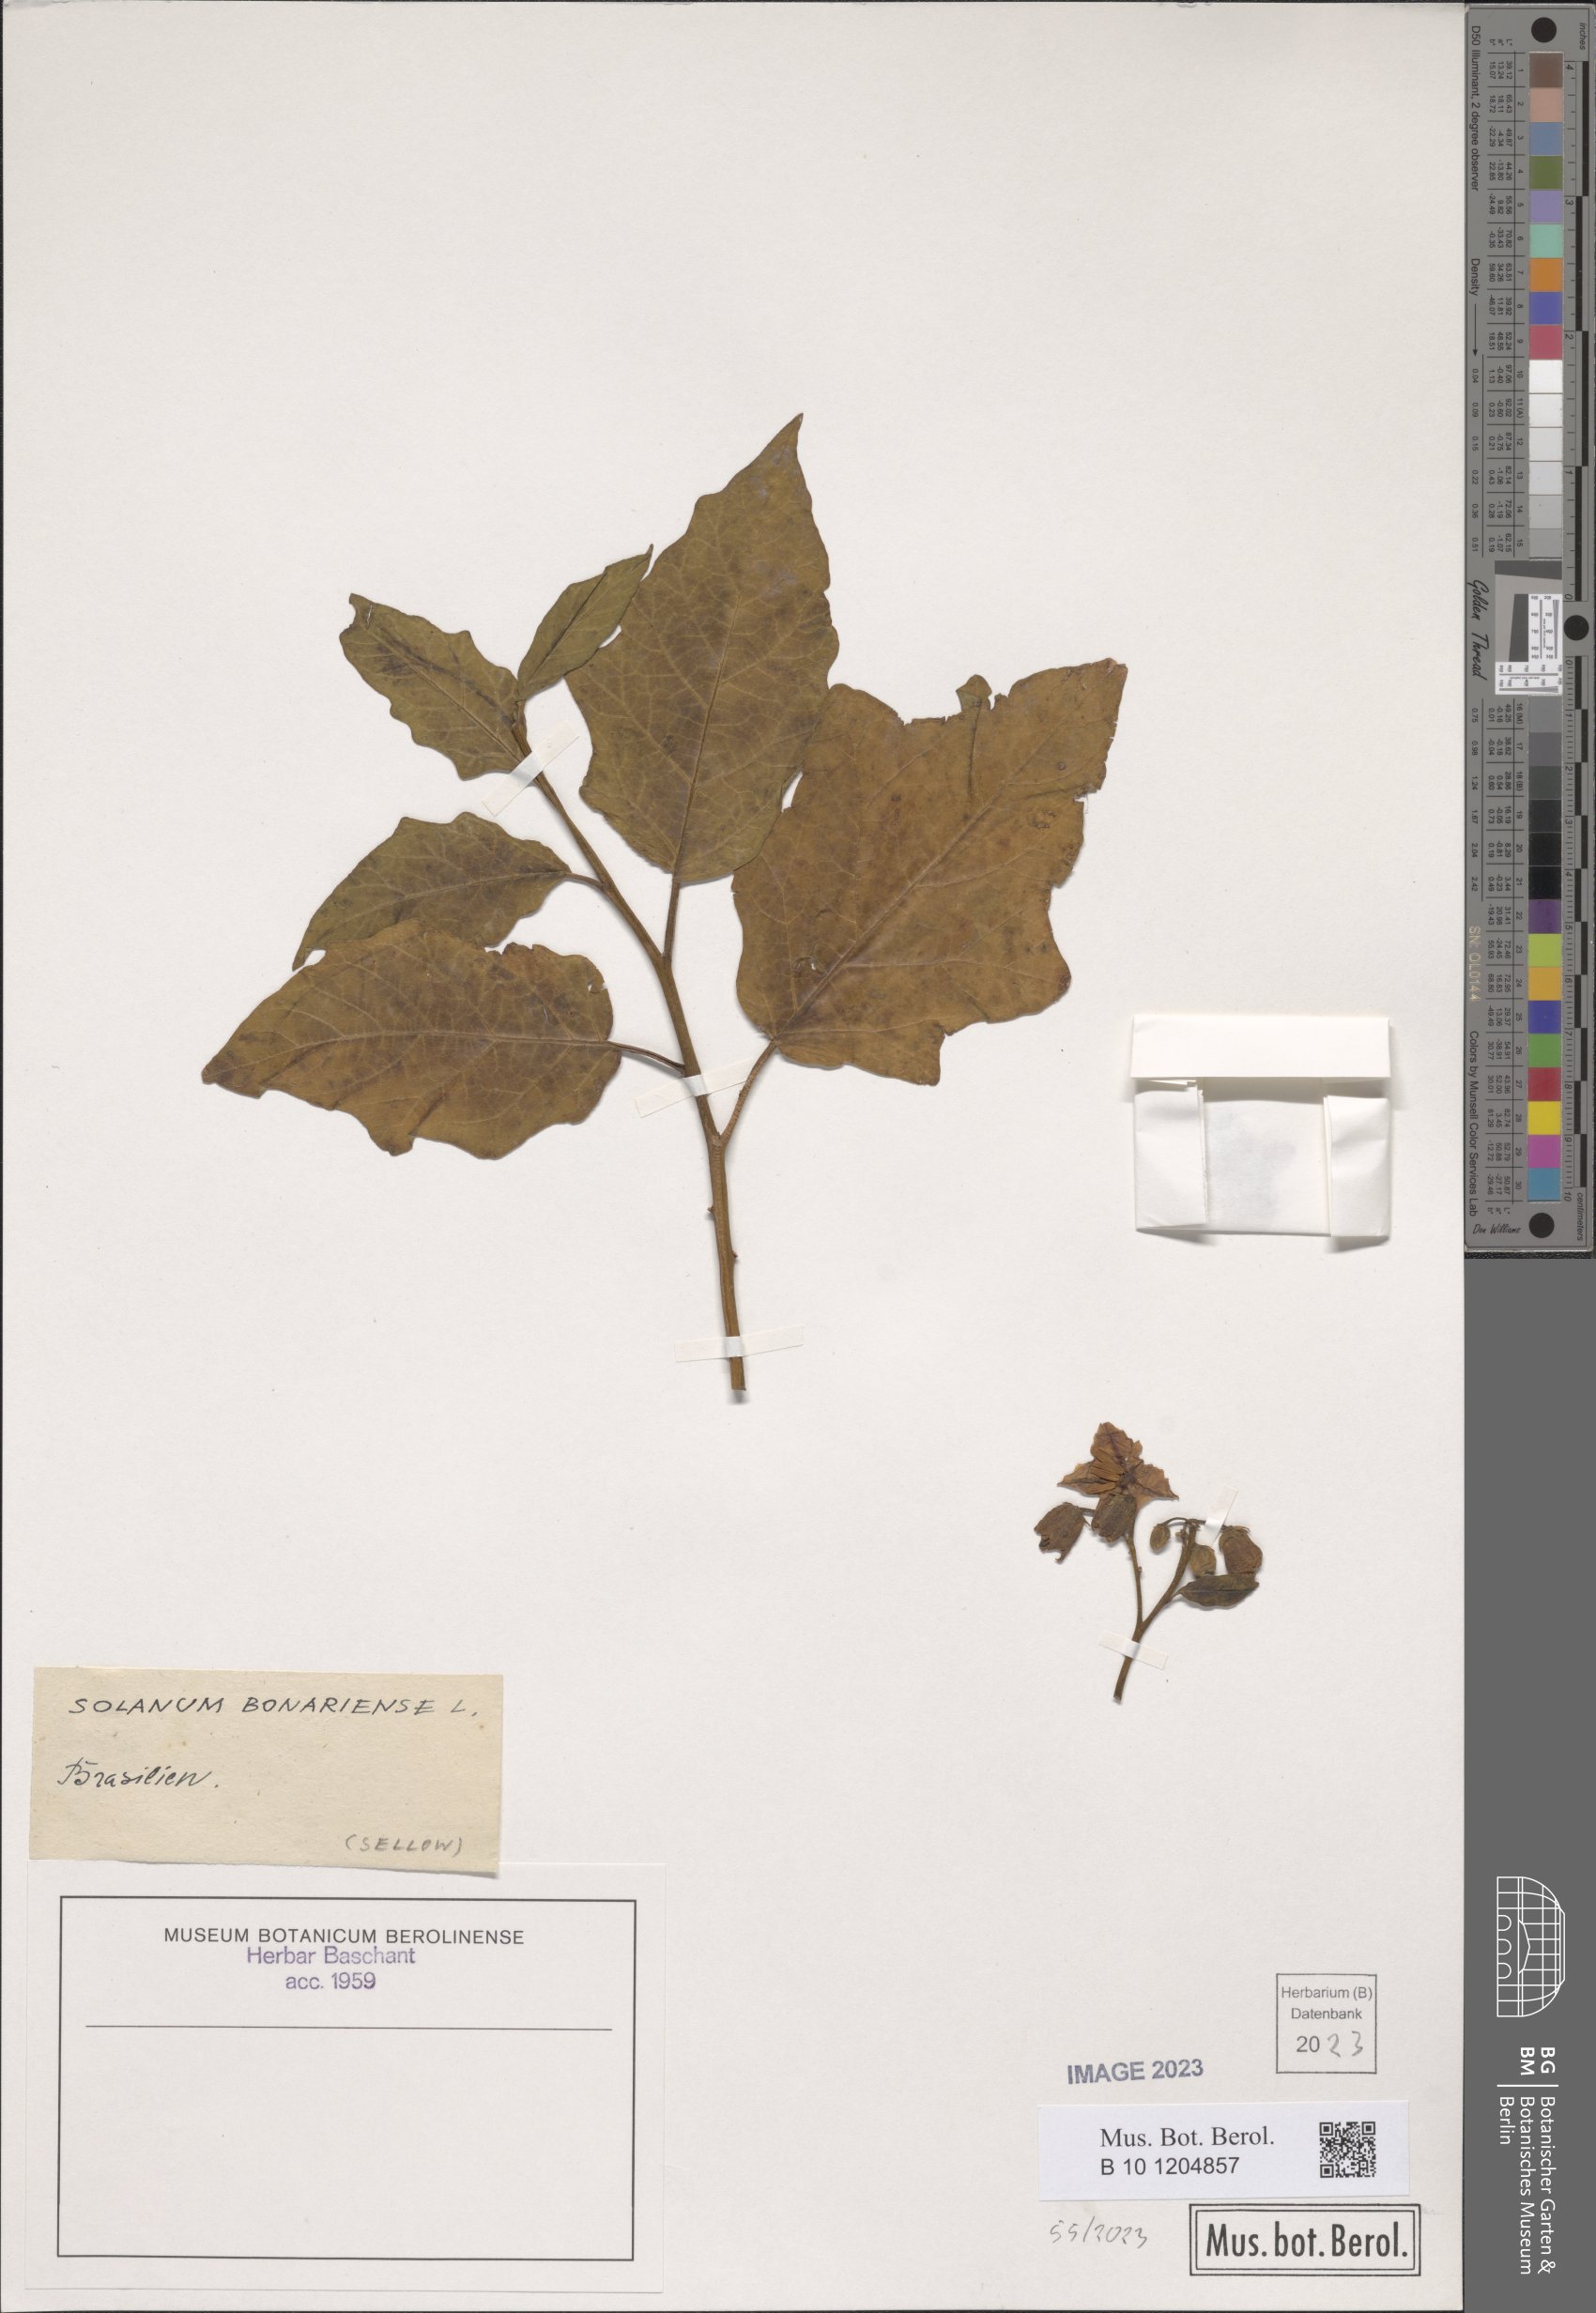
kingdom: Plantae
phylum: Tracheophyta
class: Magnoliopsida
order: Solanales
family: Solanaceae
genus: Solanum
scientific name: Solanum bonariense
